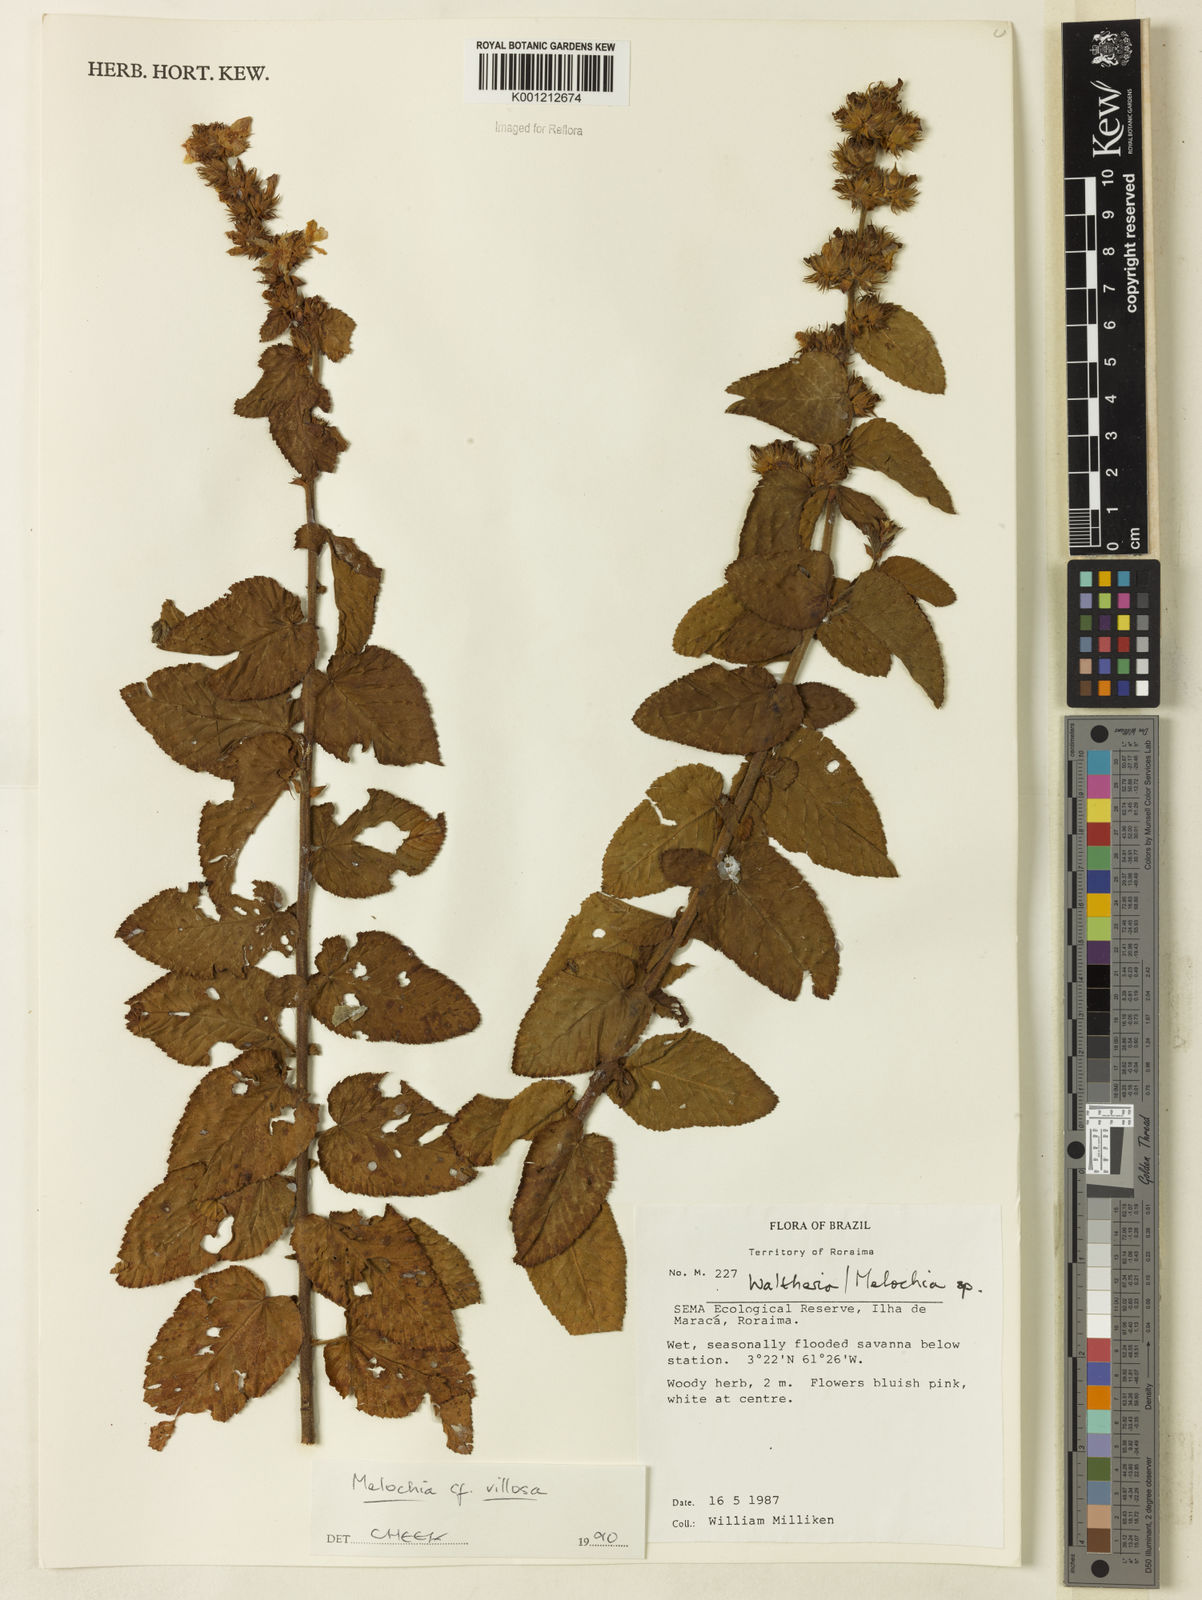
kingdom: Plantae
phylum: Tracheophyta
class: Magnoliopsida
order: Malvales
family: Malvaceae
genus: Melochia
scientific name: Melochia spicata
